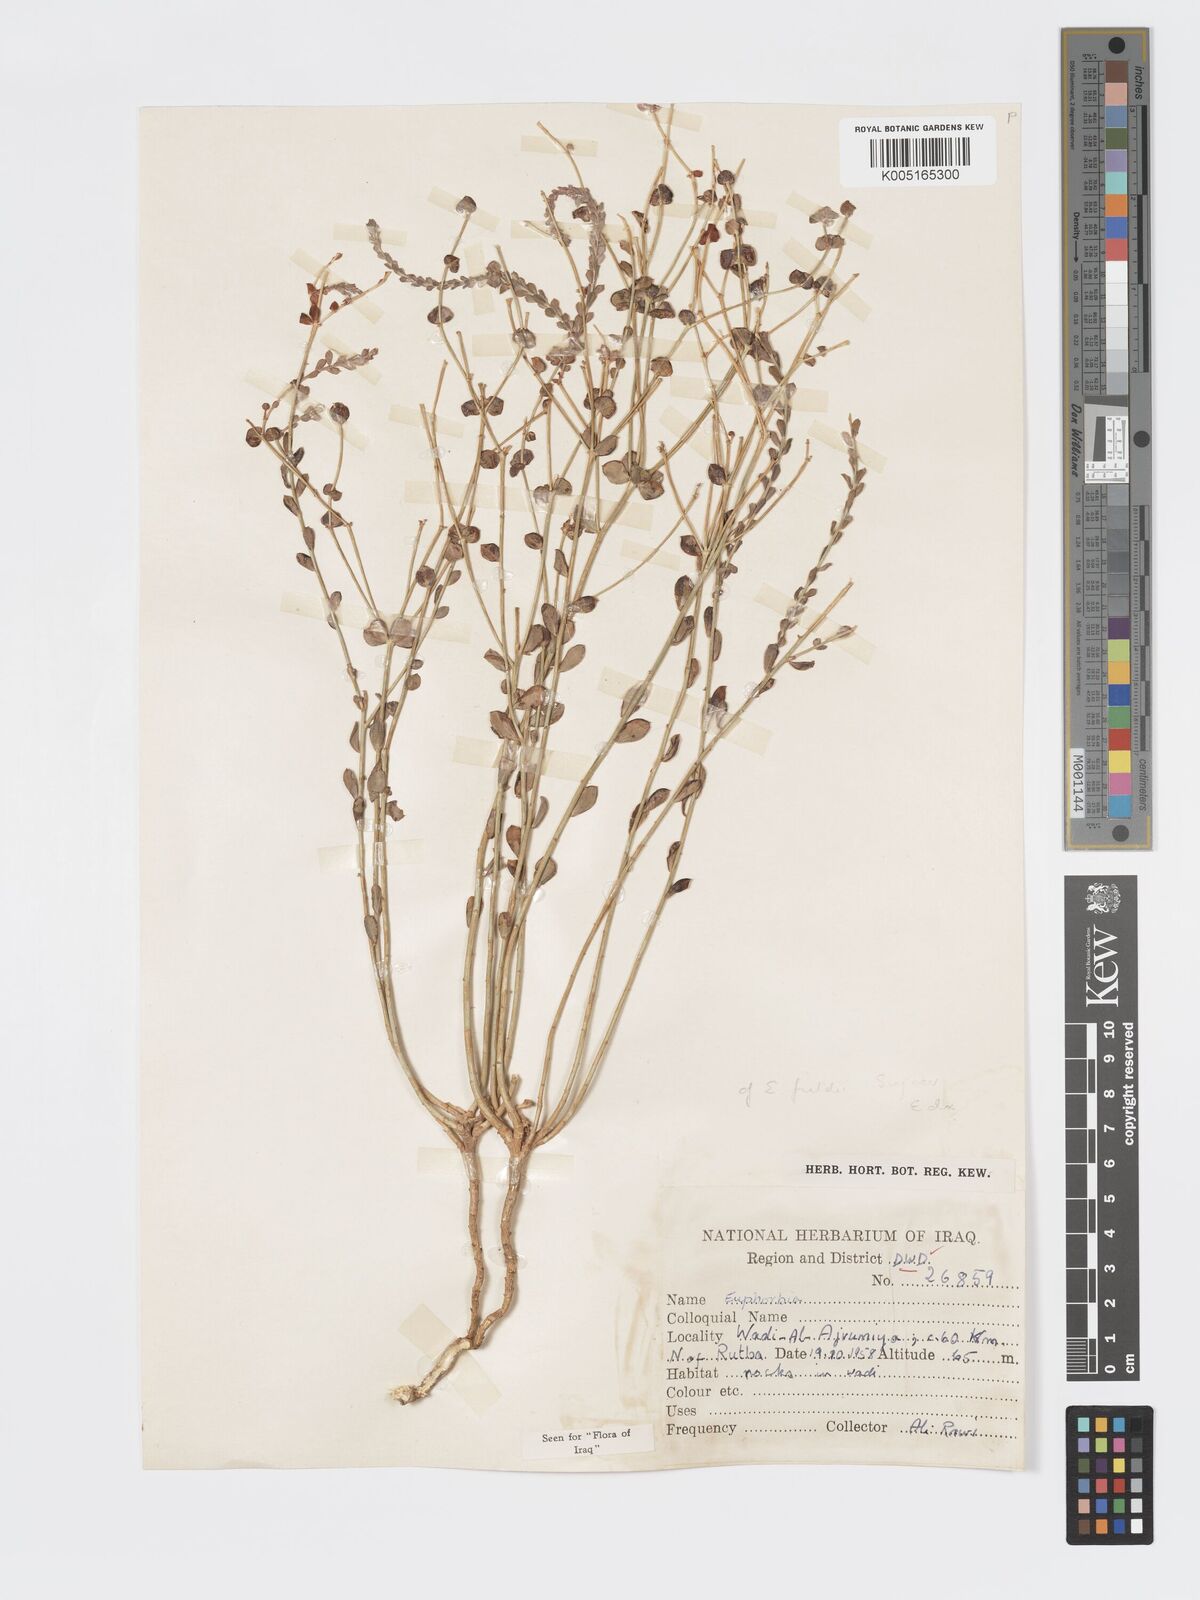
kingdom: Plantae
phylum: Tracheophyta
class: Magnoliopsida
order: Malpighiales
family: Euphorbiaceae
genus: Euphorbia
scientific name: Euphorbia
